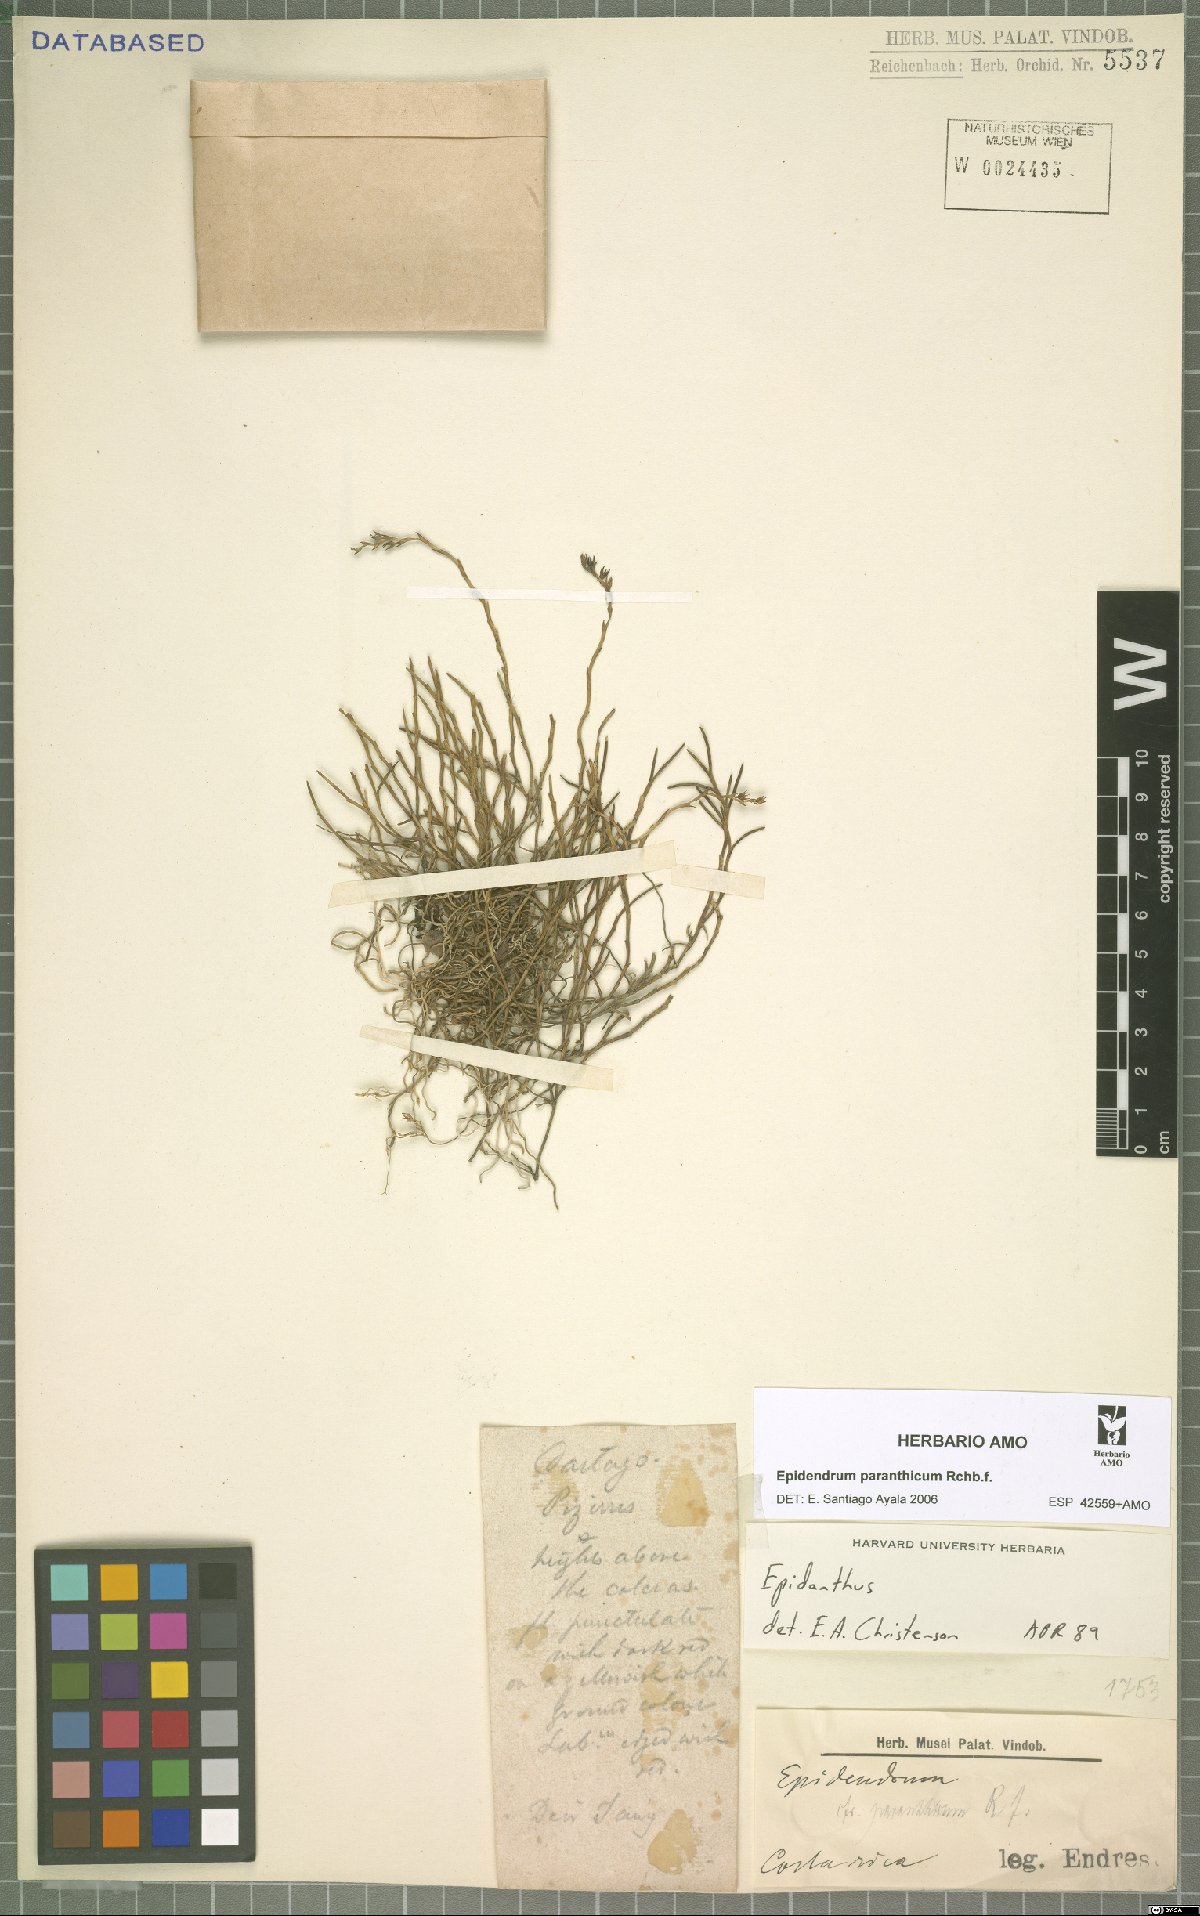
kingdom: Plantae
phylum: Tracheophyta
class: Liliopsida
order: Asparagales
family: Orchidaceae
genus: Epidendrum
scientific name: Epidendrum paranthicum
